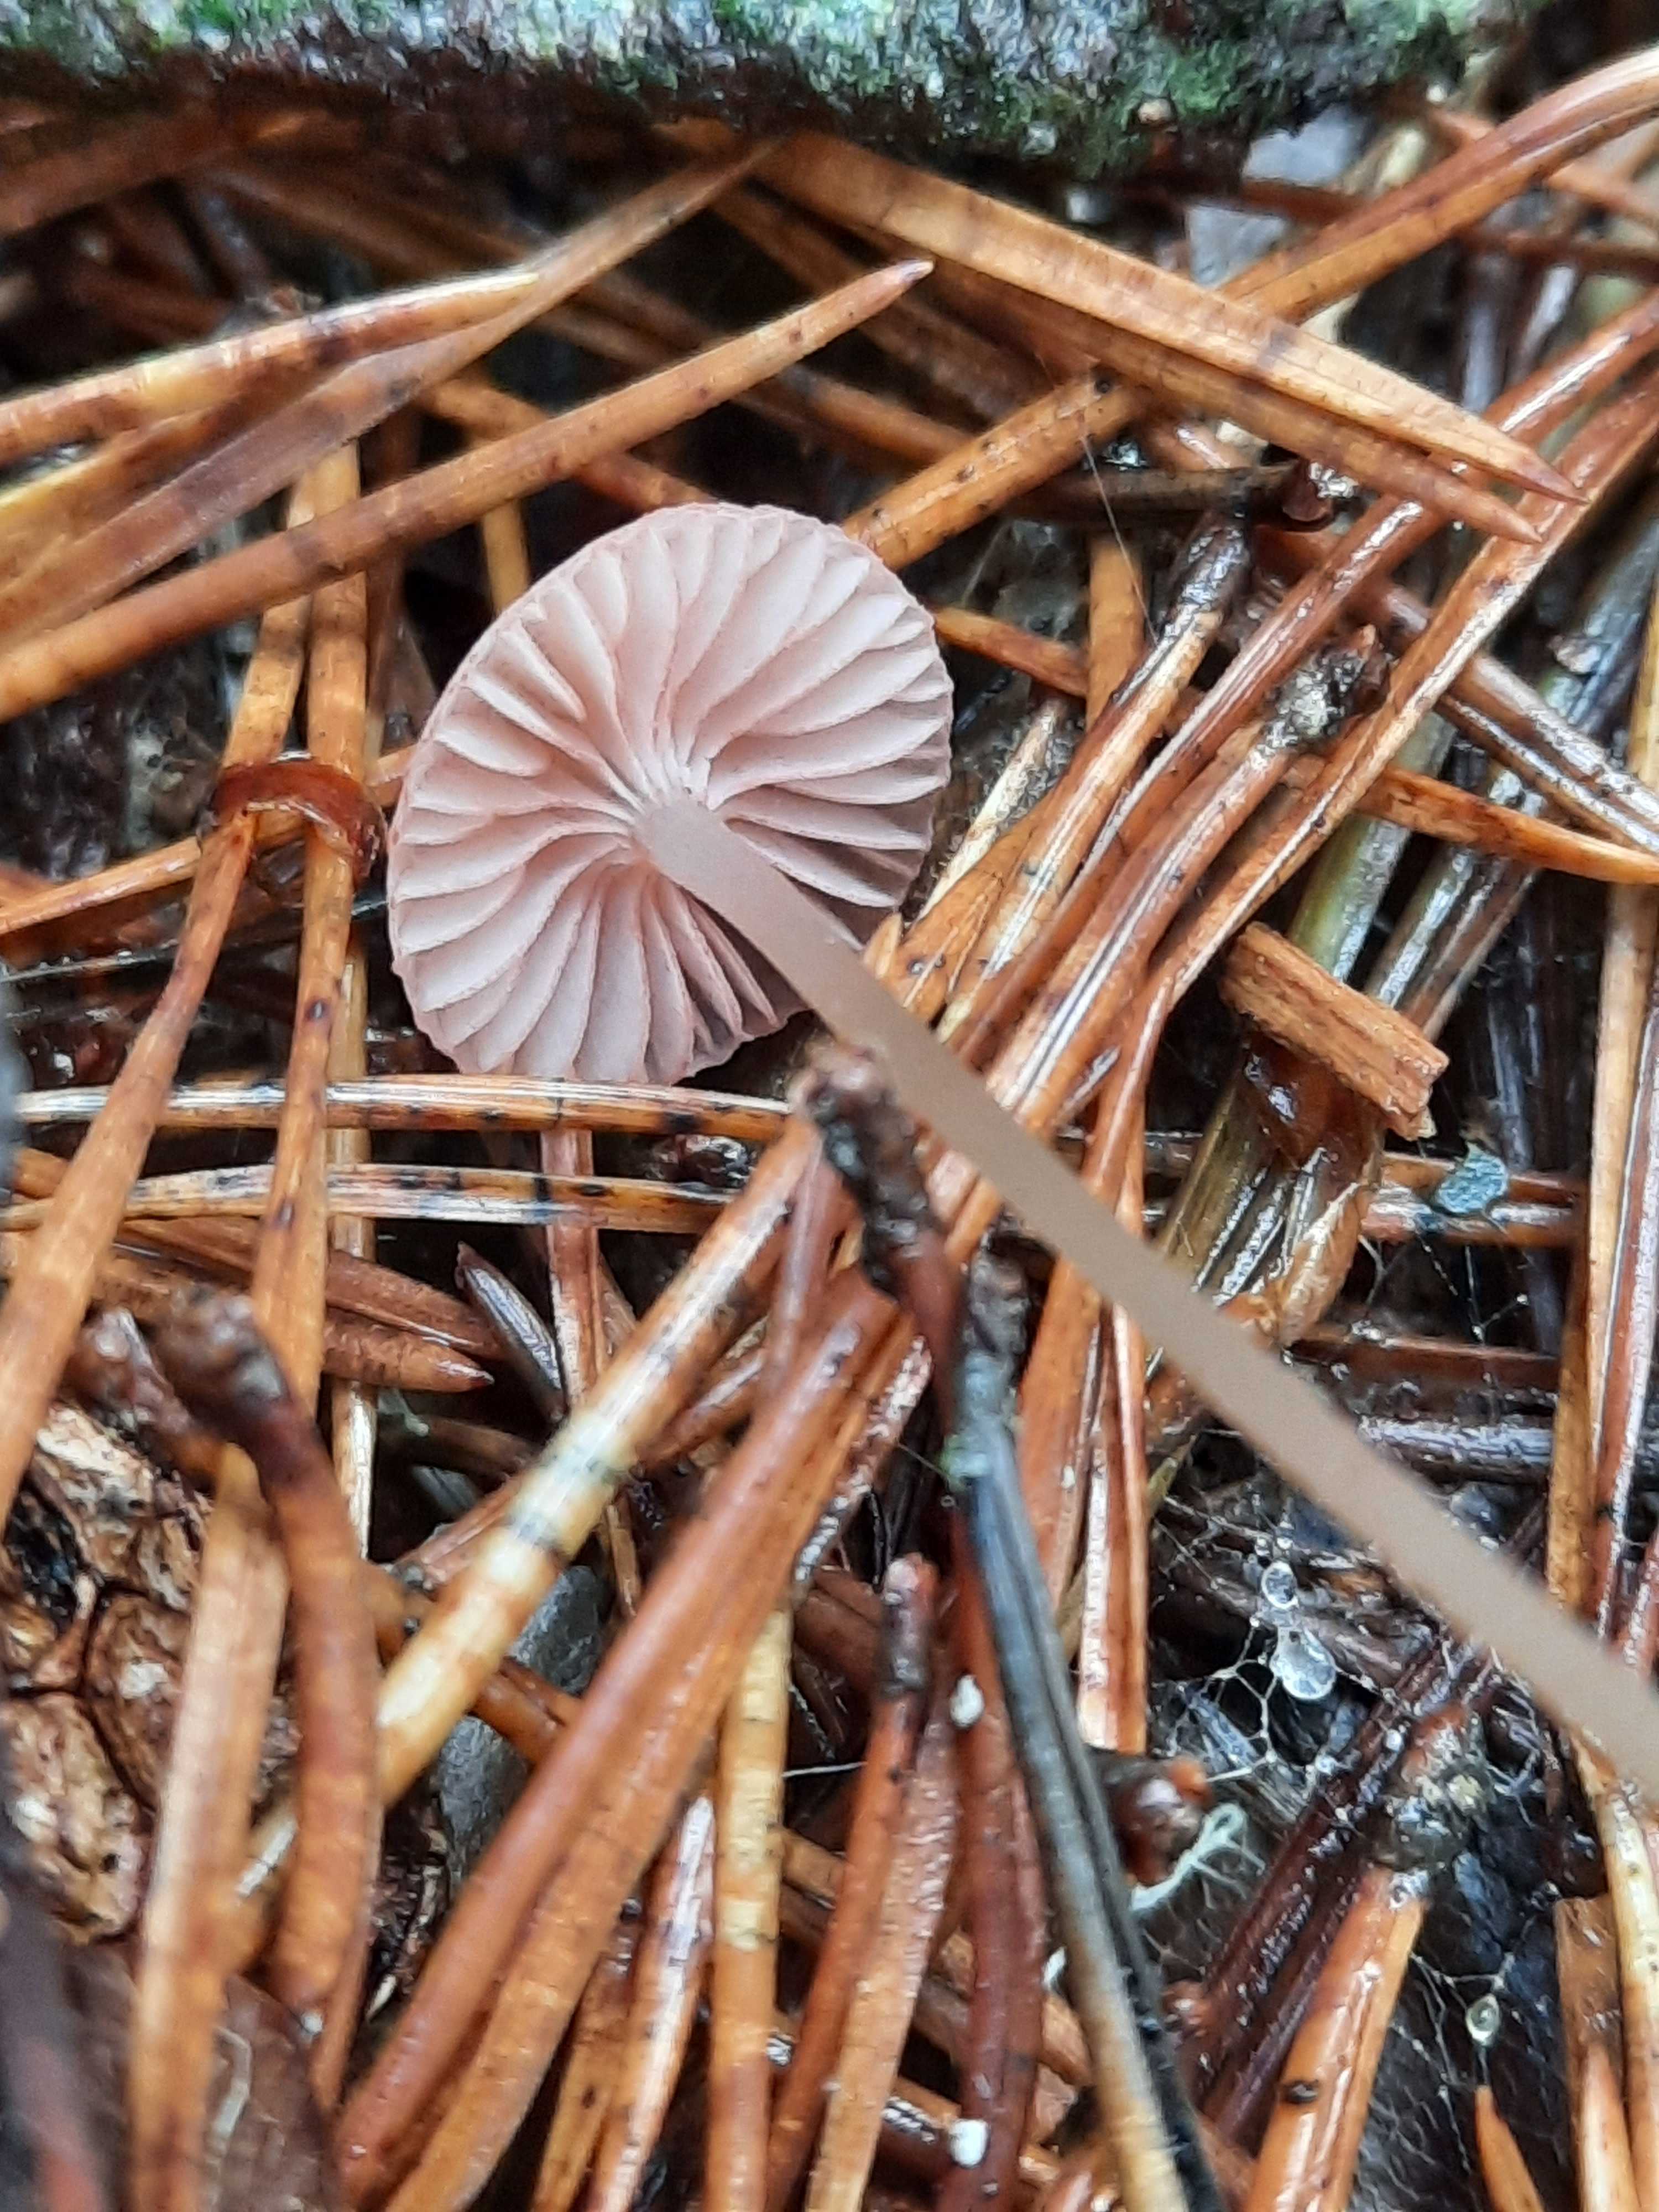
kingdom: Fungi
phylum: Basidiomycota
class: Agaricomycetes
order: Agaricales
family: Mycenaceae
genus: Mycena
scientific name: Mycena rosella
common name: rosenrød huesvamp
